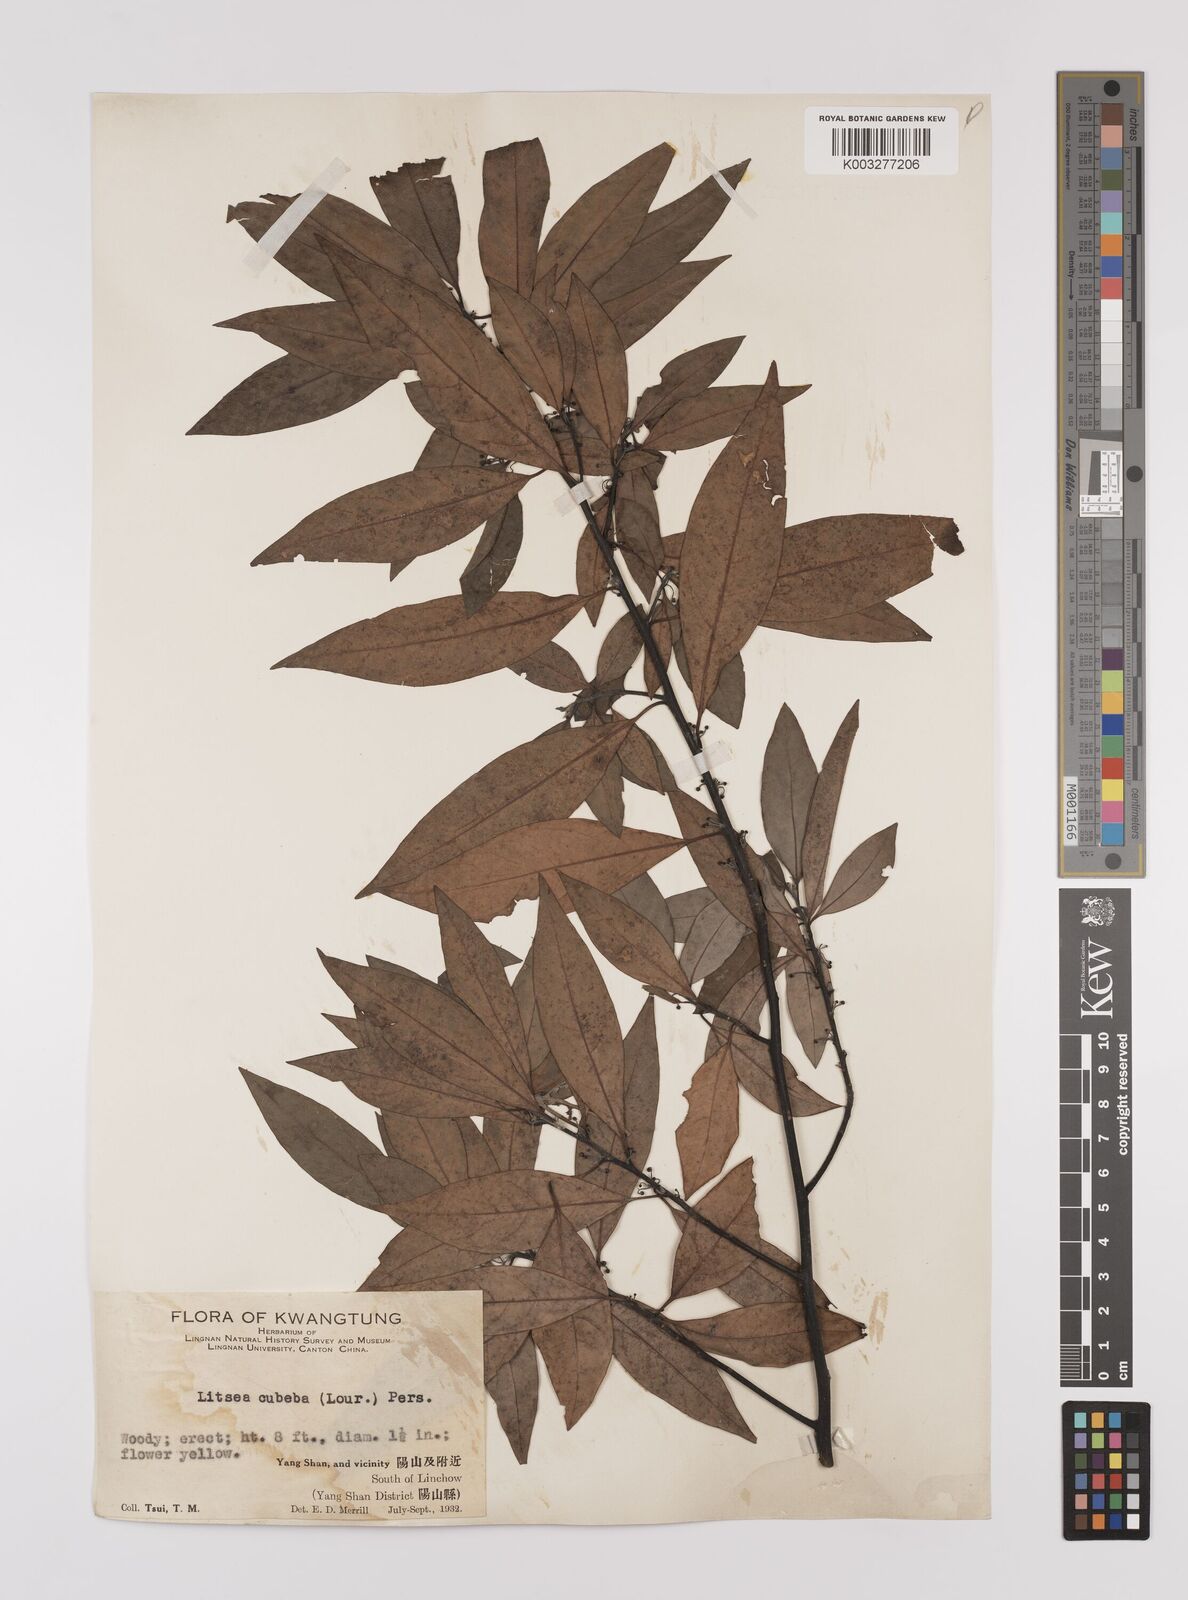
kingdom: Plantae
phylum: Tracheophyta
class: Magnoliopsida
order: Laurales
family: Lauraceae
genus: Litsea
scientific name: Litsea cubeba
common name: Mountain-pepper
